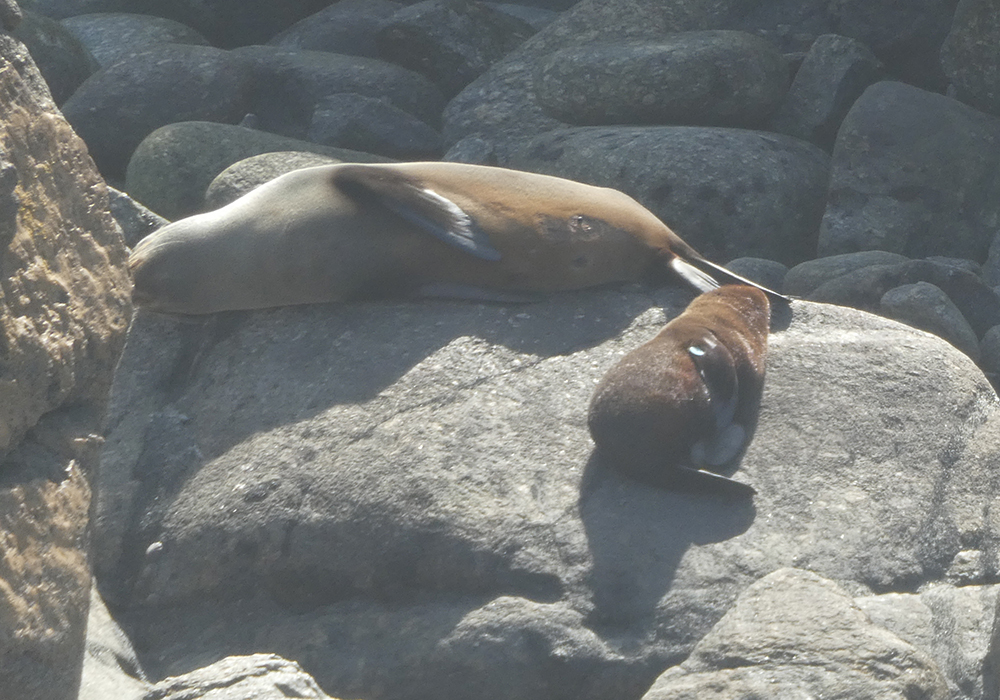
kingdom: Animalia
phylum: Chordata
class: Mammalia
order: Carnivora
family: Otariidae
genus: Arctocephalus
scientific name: Arctocephalus forsteri
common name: New zealand fur seal
